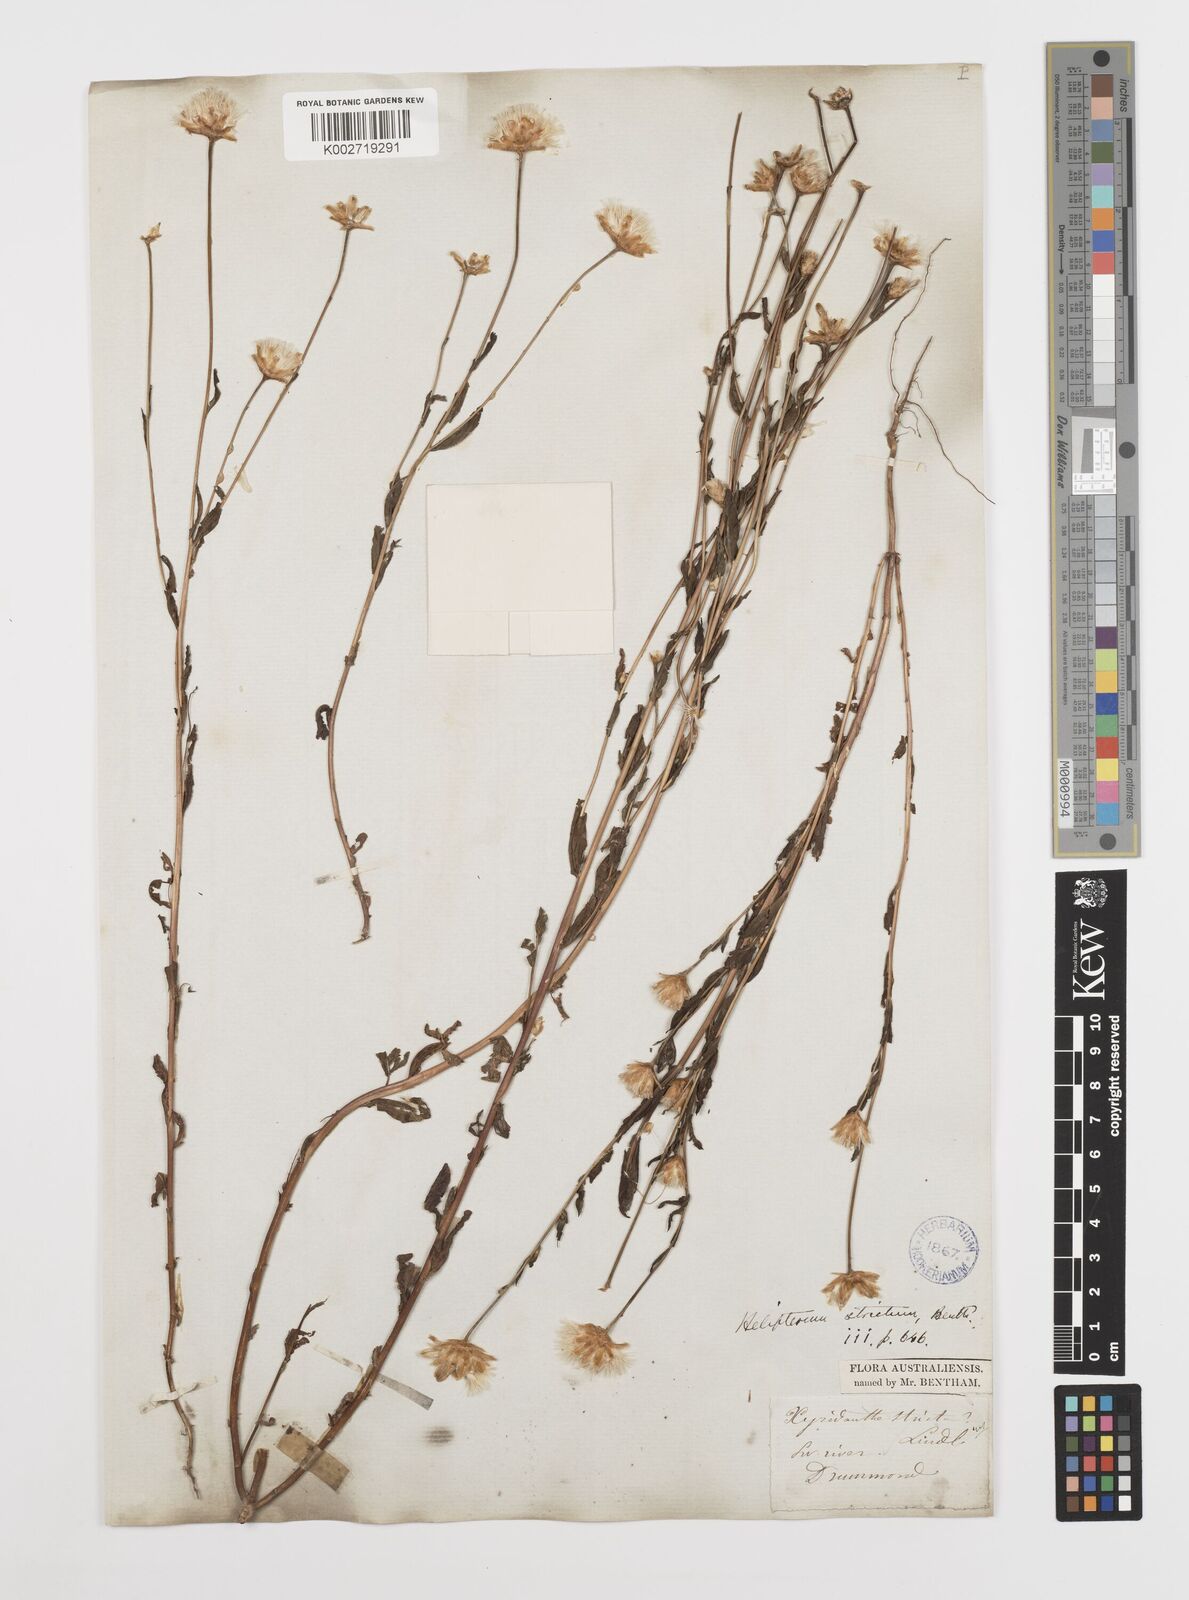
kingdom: Plantae
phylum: Tracheophyta
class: Magnoliopsida
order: Asterales
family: Asteraceae
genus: Rhodanthe
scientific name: Rhodanthe stricta
